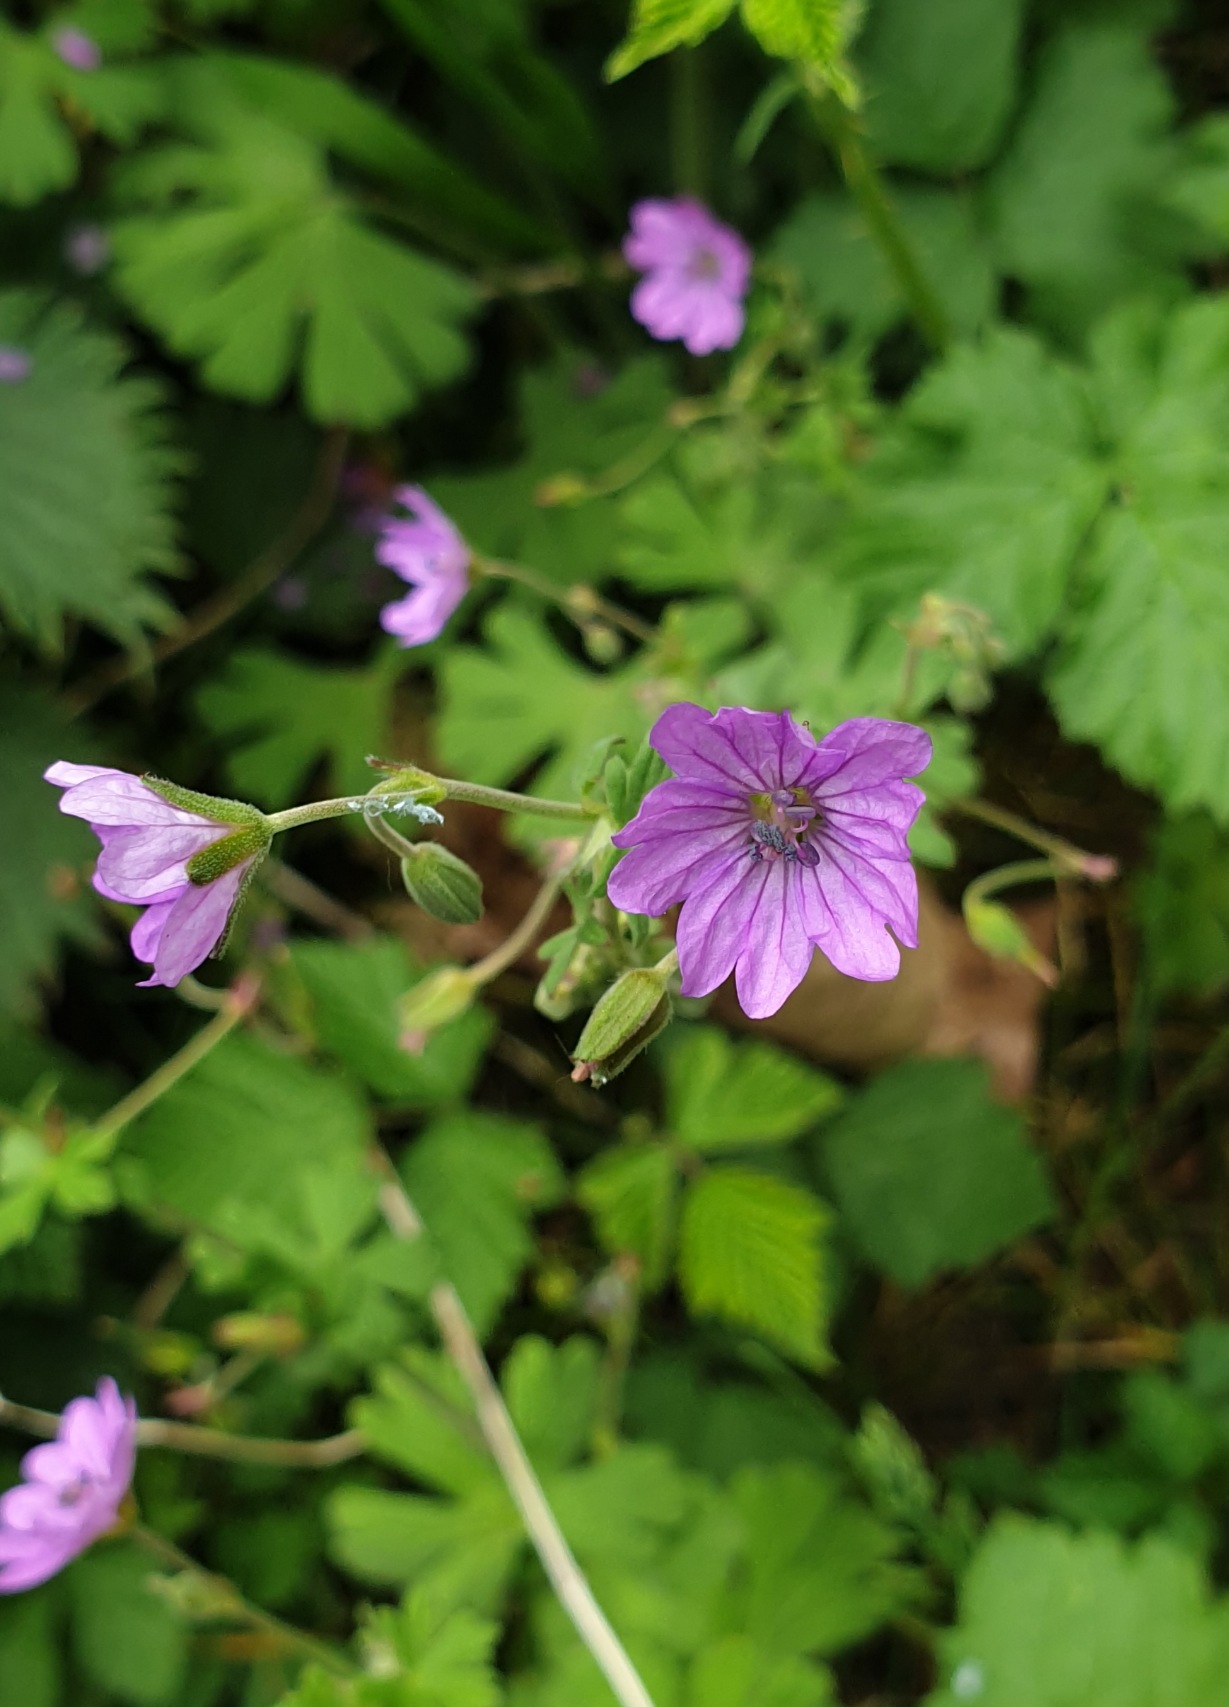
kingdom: Plantae
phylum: Tracheophyta
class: Magnoliopsida
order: Geraniales
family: Geraniaceae
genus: Geranium
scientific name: Geranium pyrenaicum
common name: Pyrenæisk storkenæb
